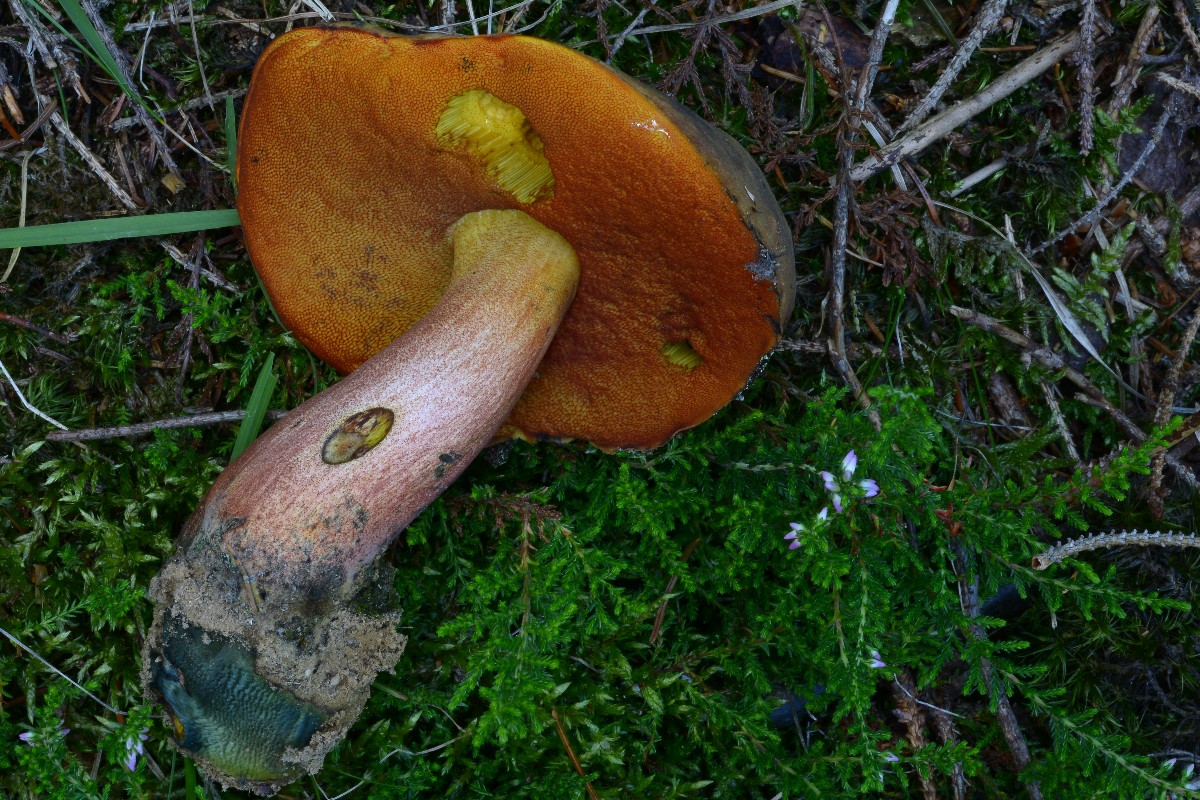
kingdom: Fungi
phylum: Basidiomycota
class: Agaricomycetes
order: Boletales
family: Boletaceae
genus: Neoboletus
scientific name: Neoboletus erythropus
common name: punktstokket indigorørhat
